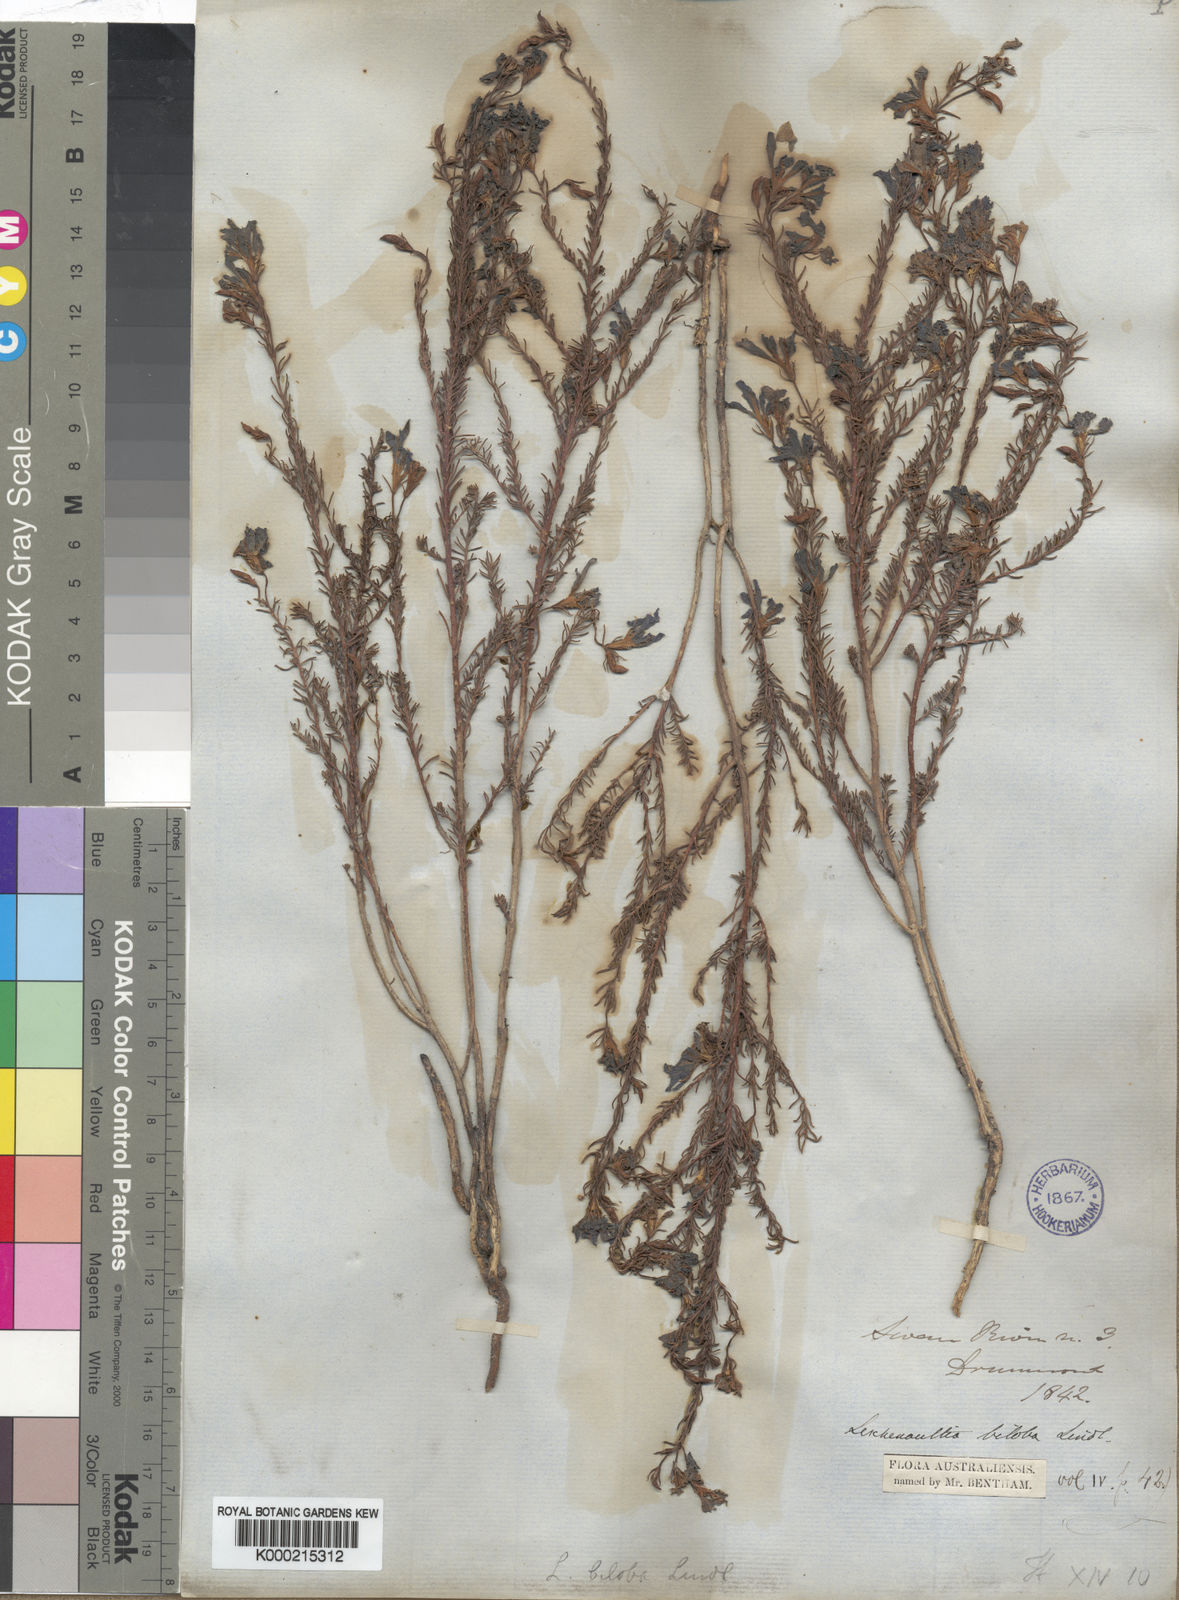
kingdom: Plantae
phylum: Tracheophyta
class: Magnoliopsida
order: Asterales
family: Goodeniaceae
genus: Leschenaultia
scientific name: Leschenaultia biloba
